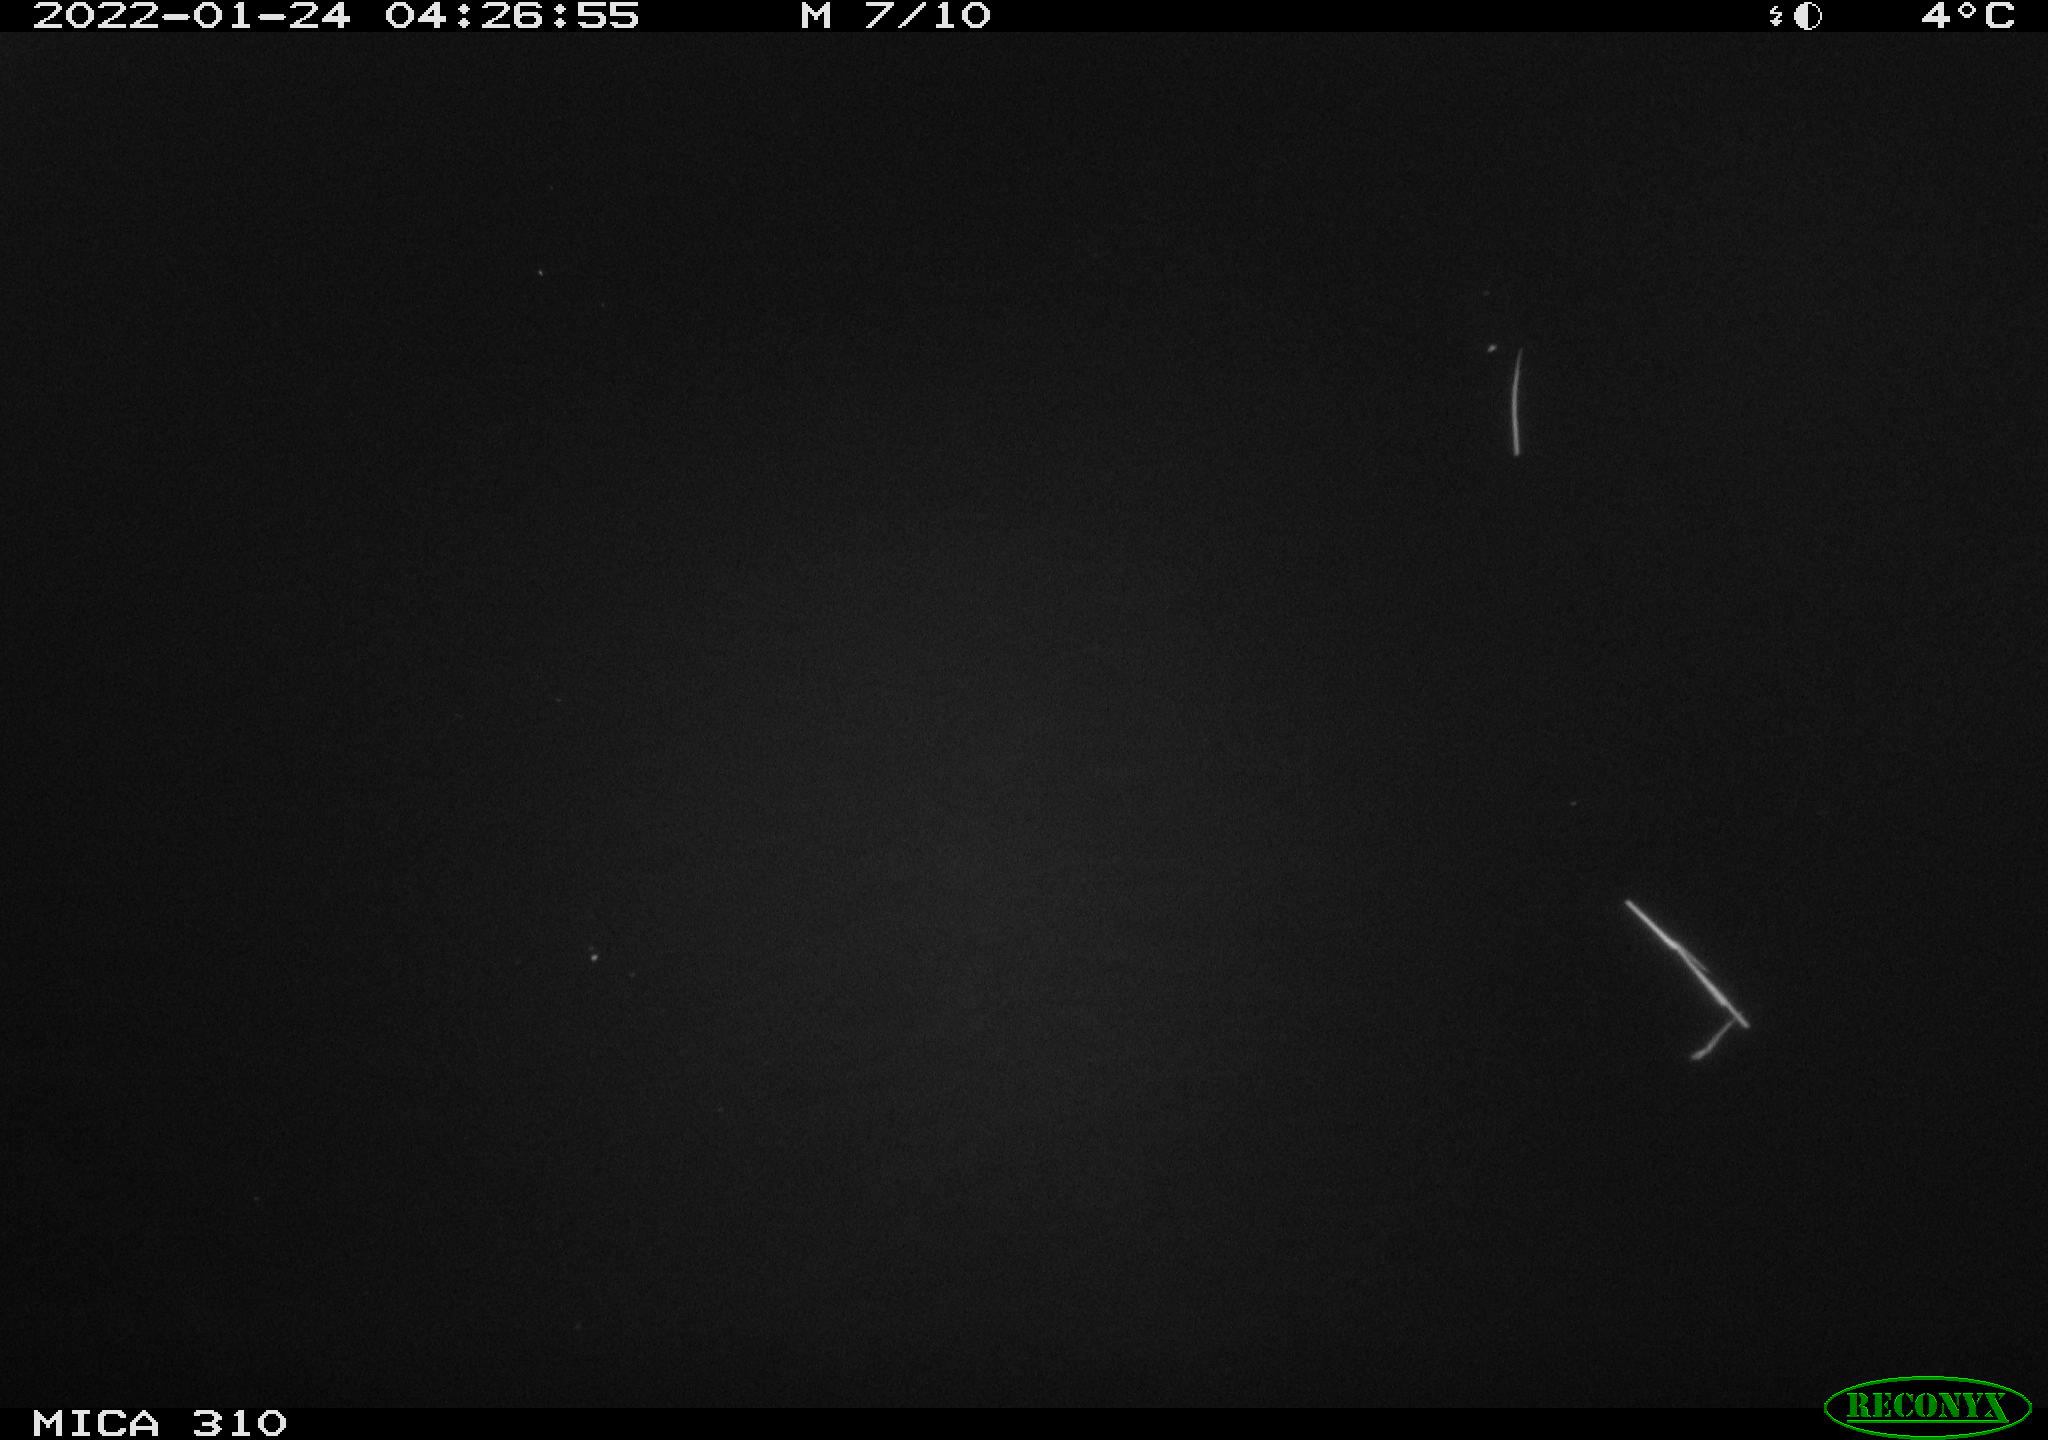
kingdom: Animalia
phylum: Chordata
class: Mammalia
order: Rodentia
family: Cricetidae
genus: Ondatra
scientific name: Ondatra zibethicus
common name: Muskrat
